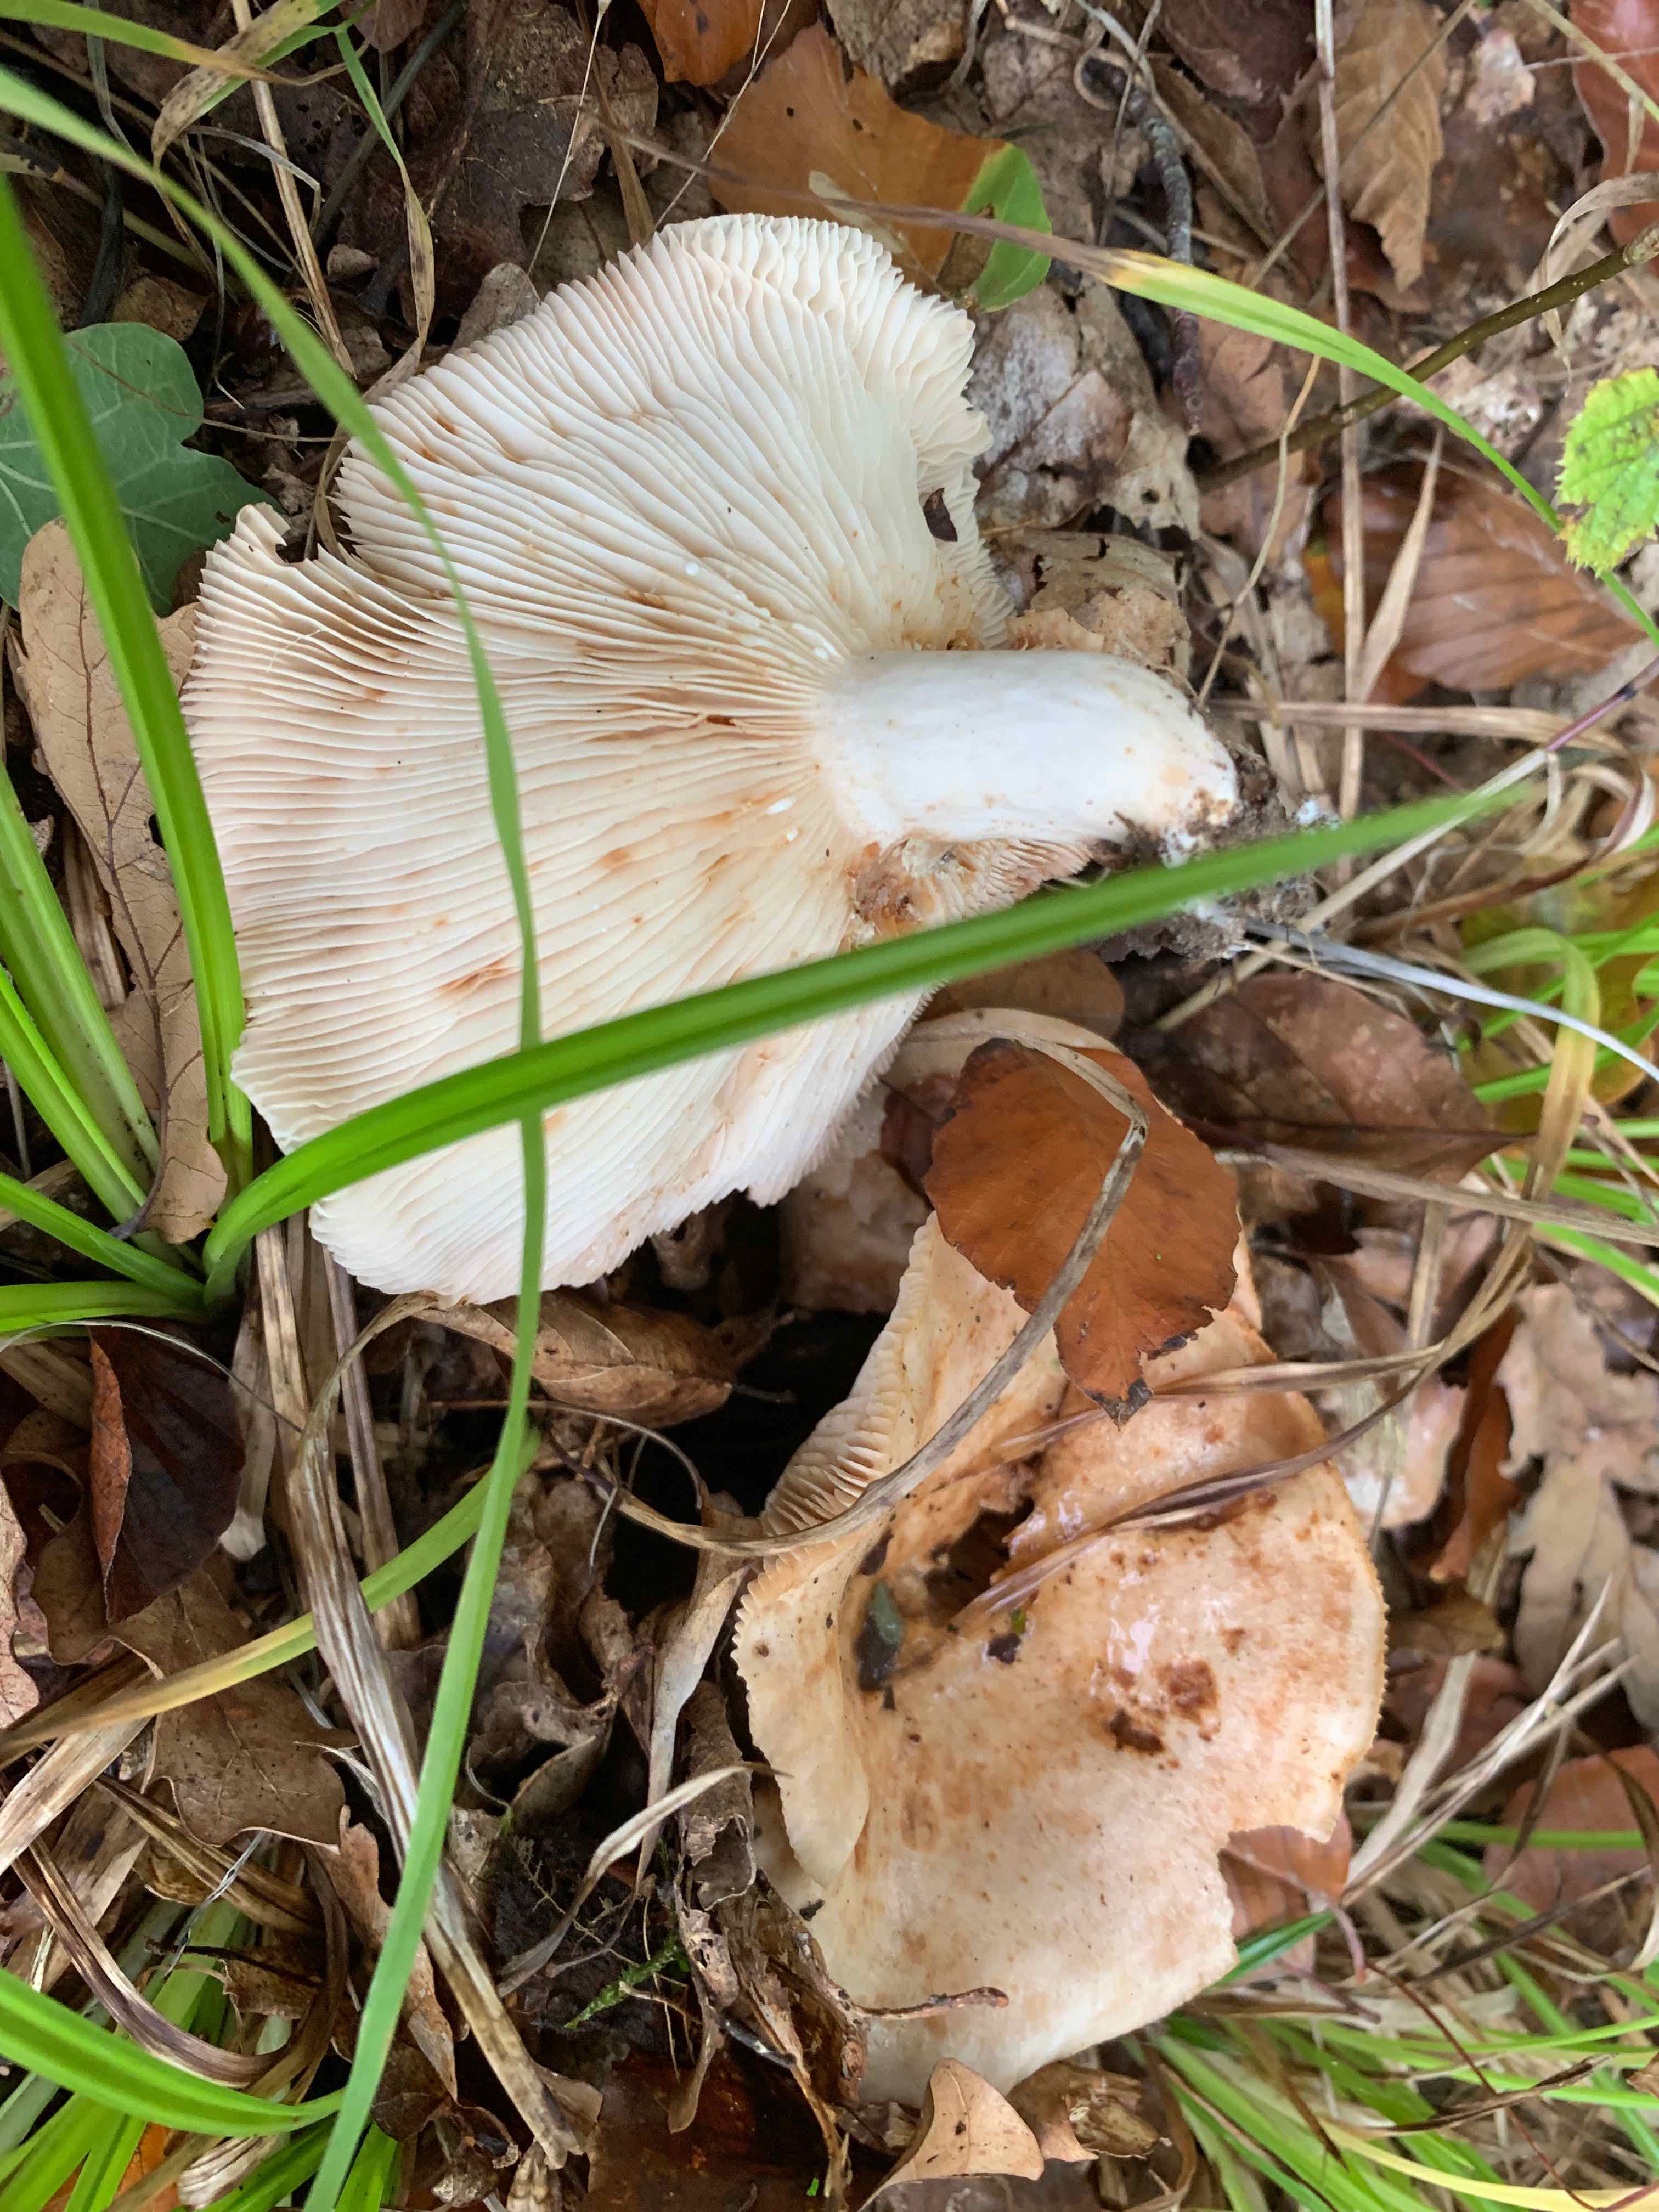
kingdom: Fungi
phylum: Basidiomycota
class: Agaricomycetes
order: Russulales
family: Russulaceae
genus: Lactarius
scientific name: Lactarius pallidus
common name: bleg mælkehat
